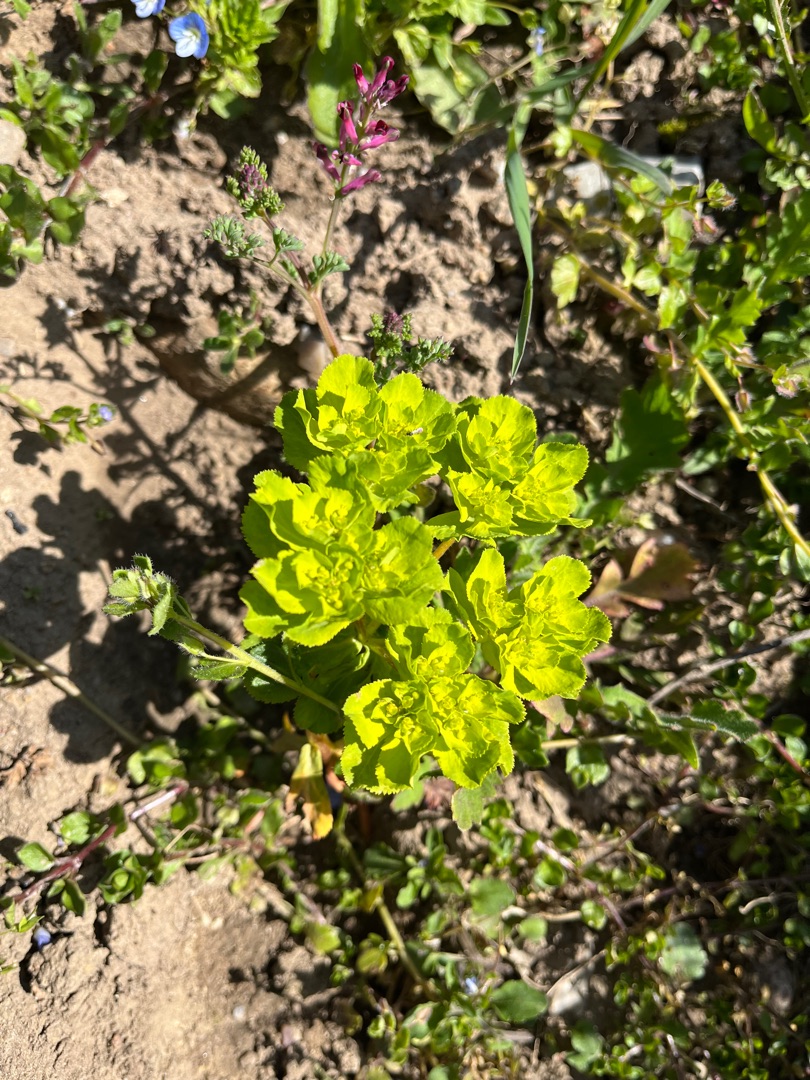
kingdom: Plantae
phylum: Tracheophyta
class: Magnoliopsida
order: Malpighiales
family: Euphorbiaceae
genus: Euphorbia
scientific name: Euphorbia helioscopia
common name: Skærm-vortemælk
